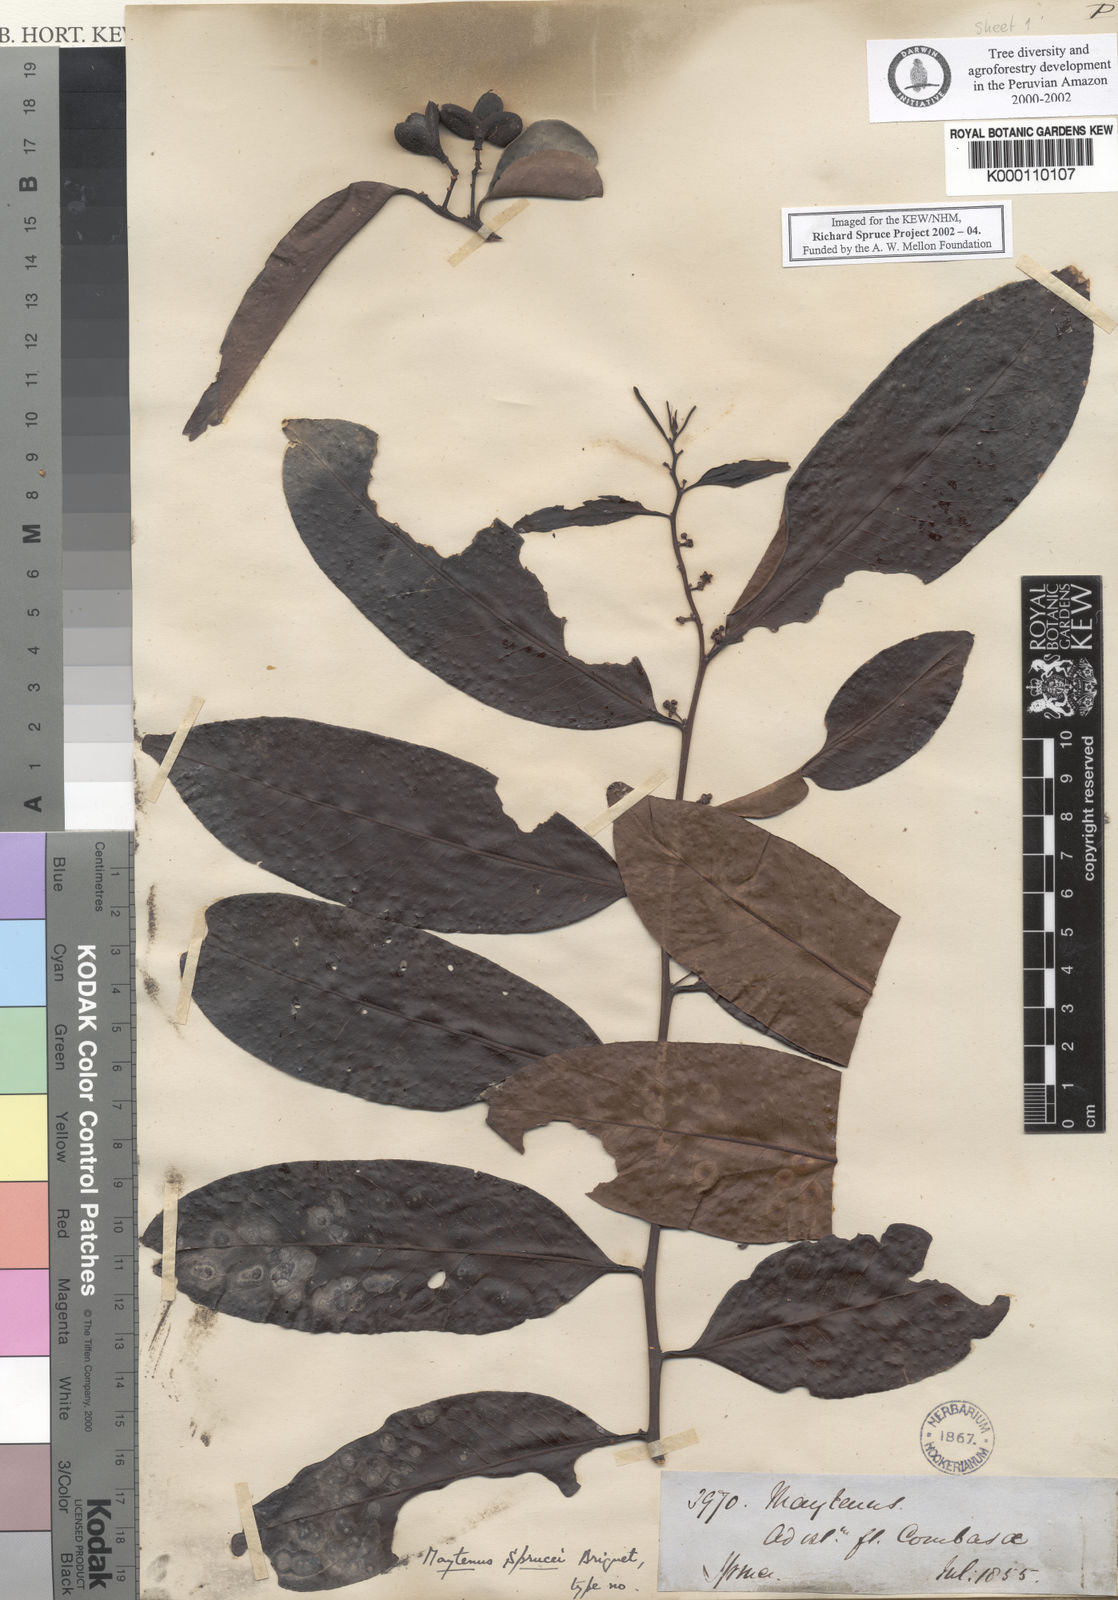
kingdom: Plantae
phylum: Tracheophyta
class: Magnoliopsida
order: Celastrales
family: Celastraceae
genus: Monteverdia
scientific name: Monteverdia sprucei
